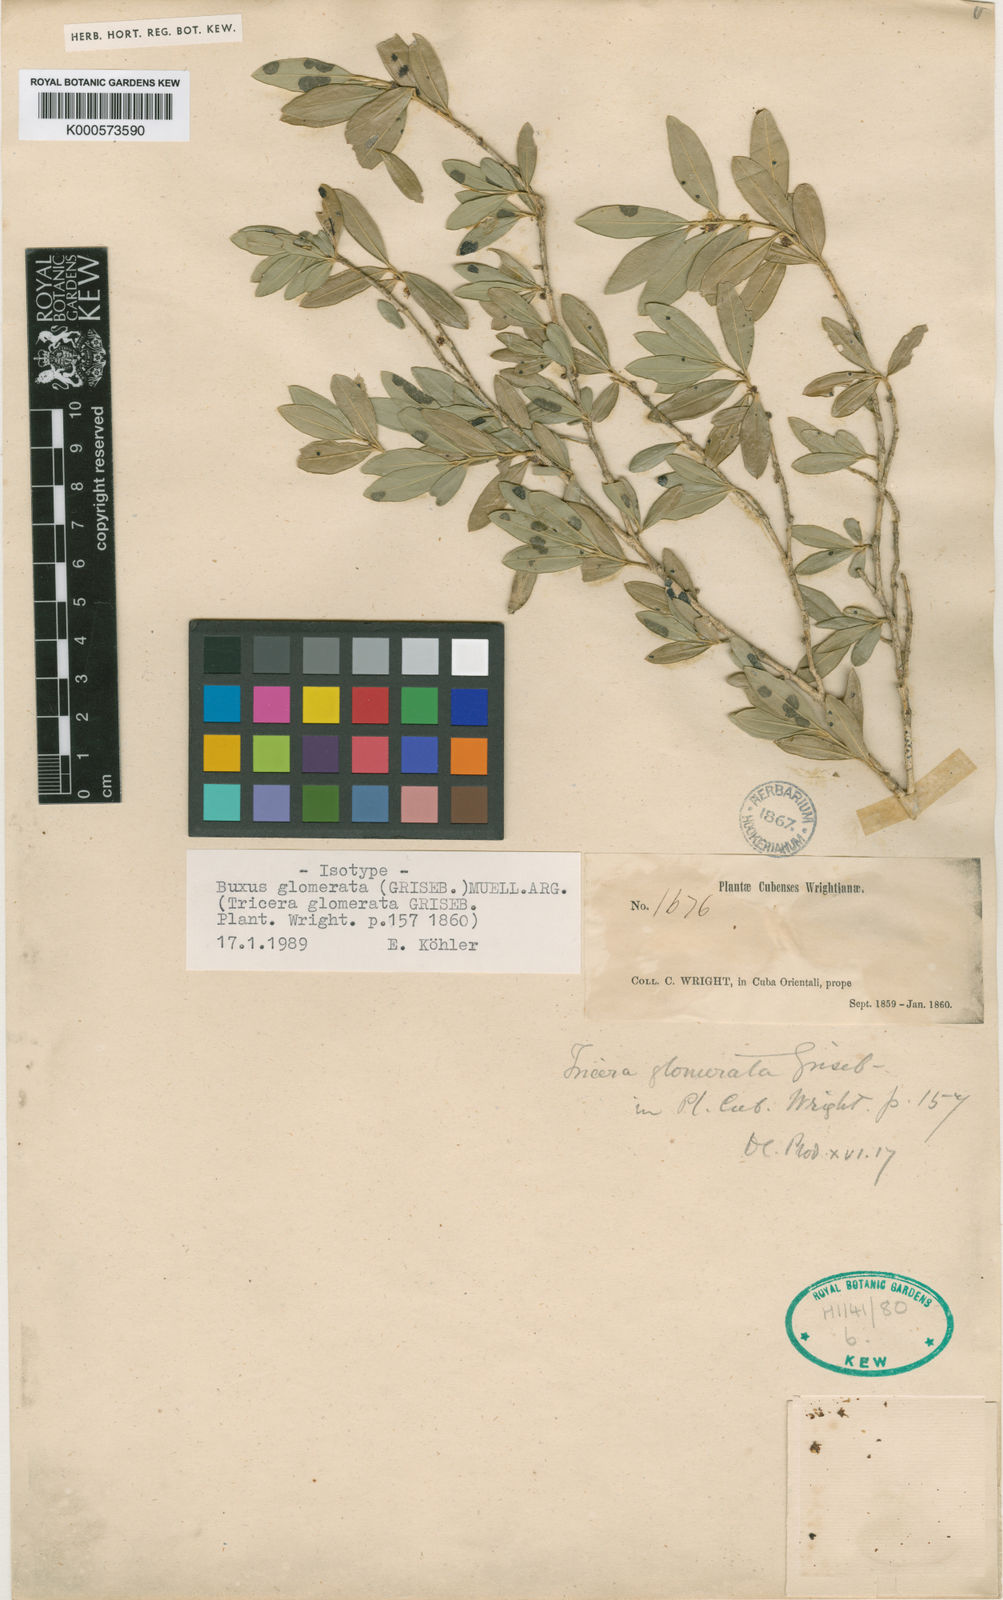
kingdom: Plantae
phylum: Tracheophyta
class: Magnoliopsida
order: Buxales
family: Buxaceae
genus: Buxus
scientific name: Buxus
